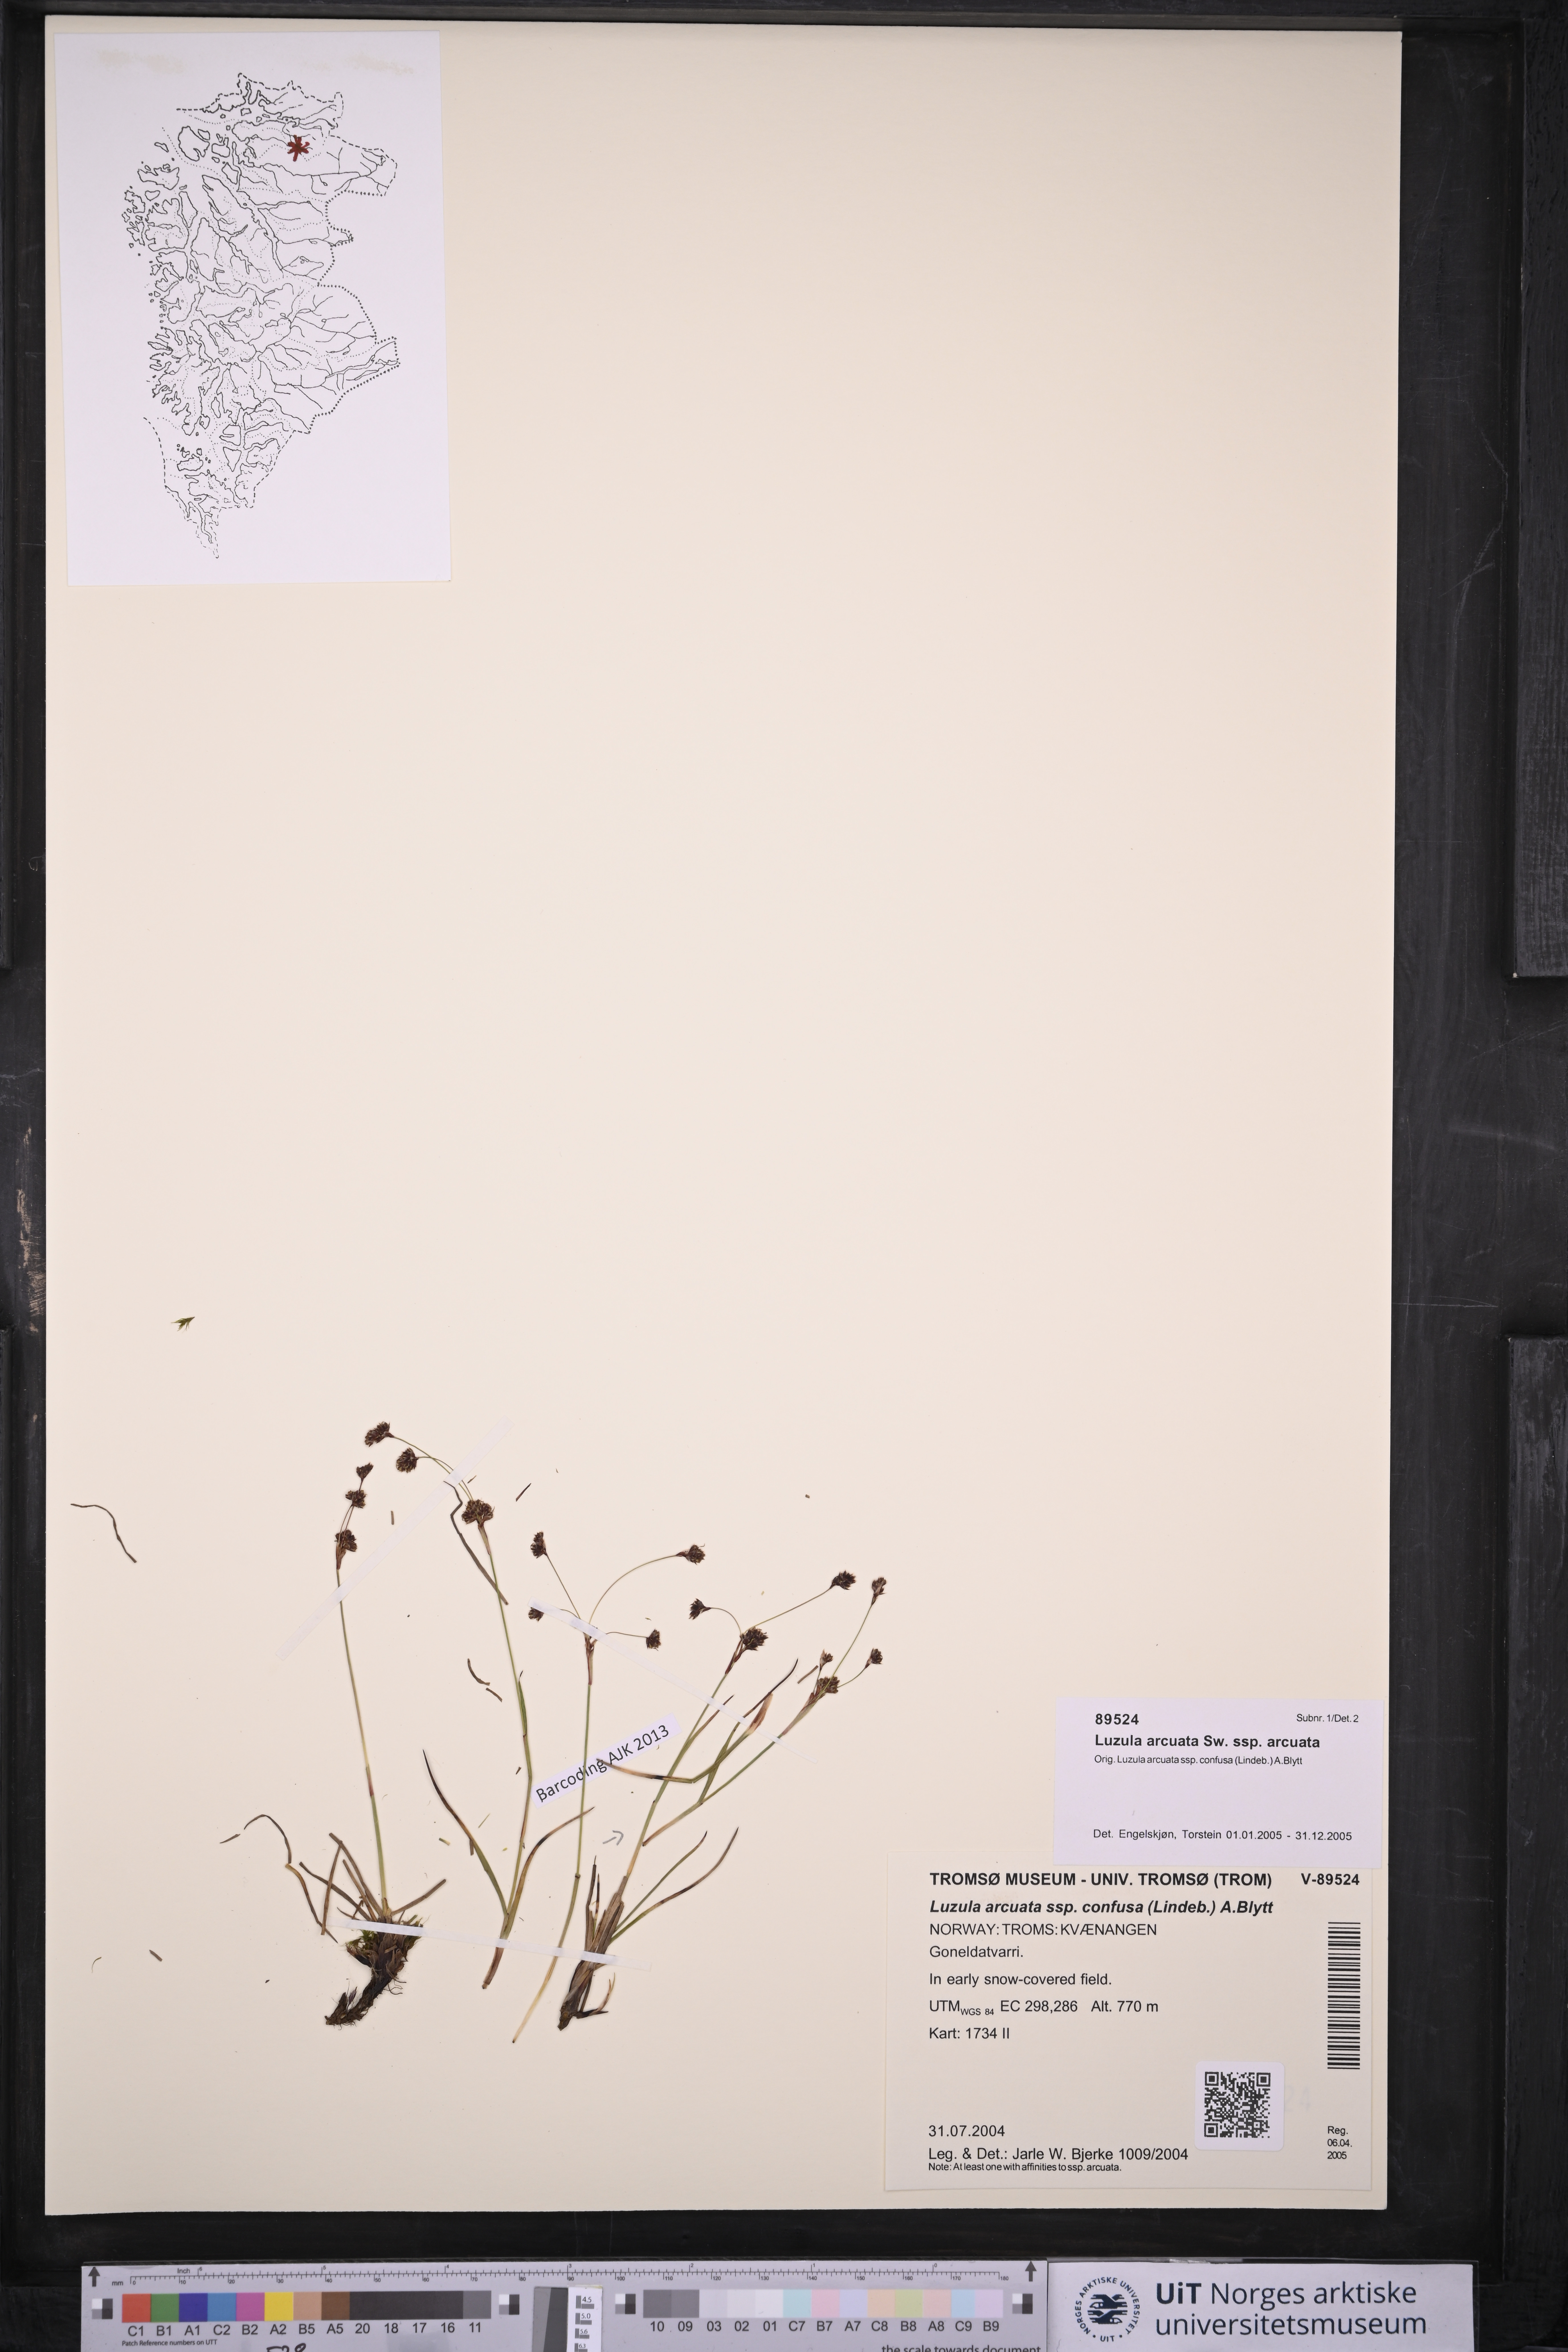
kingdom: Plantae
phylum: Tracheophyta
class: Liliopsida
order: Poales
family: Juncaceae
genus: Luzula
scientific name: Luzula arcuata
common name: Curved wood-rush
